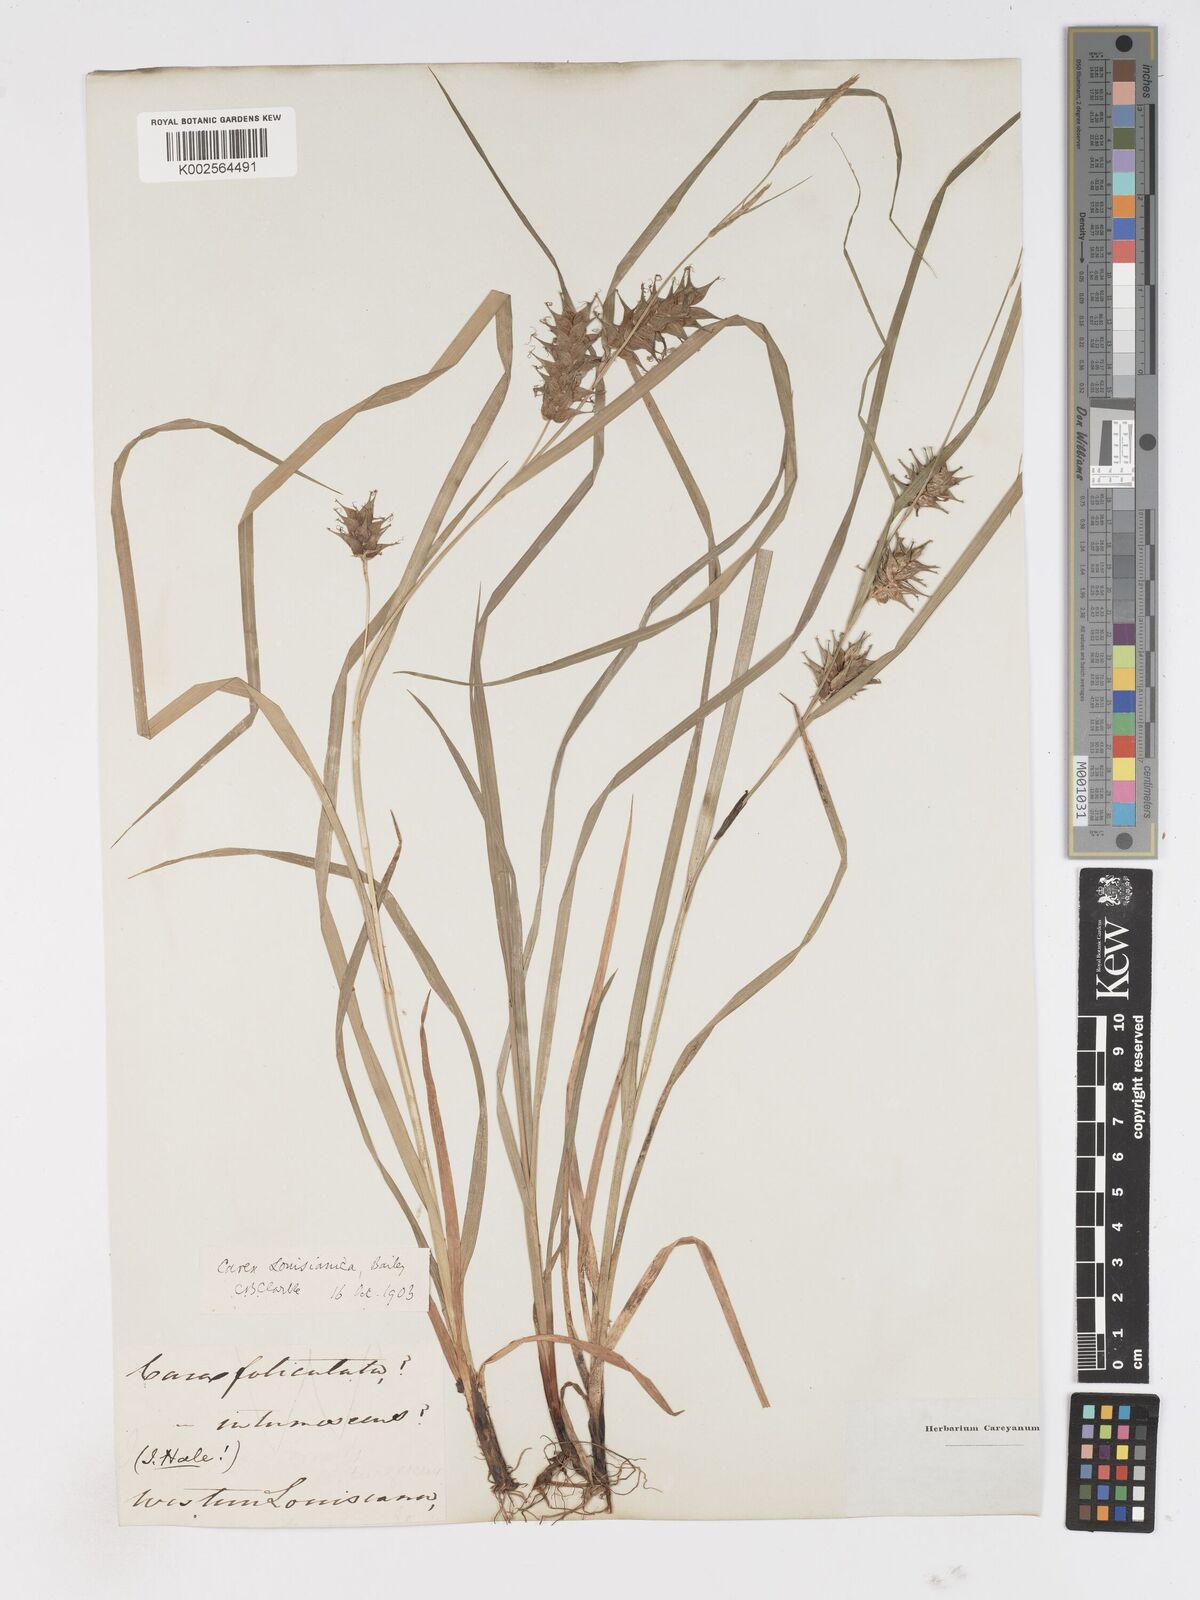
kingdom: Plantae
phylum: Tracheophyta
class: Liliopsida
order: Poales
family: Cyperaceae
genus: Carex
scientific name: Carex louisianica
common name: Louisiana sedge
